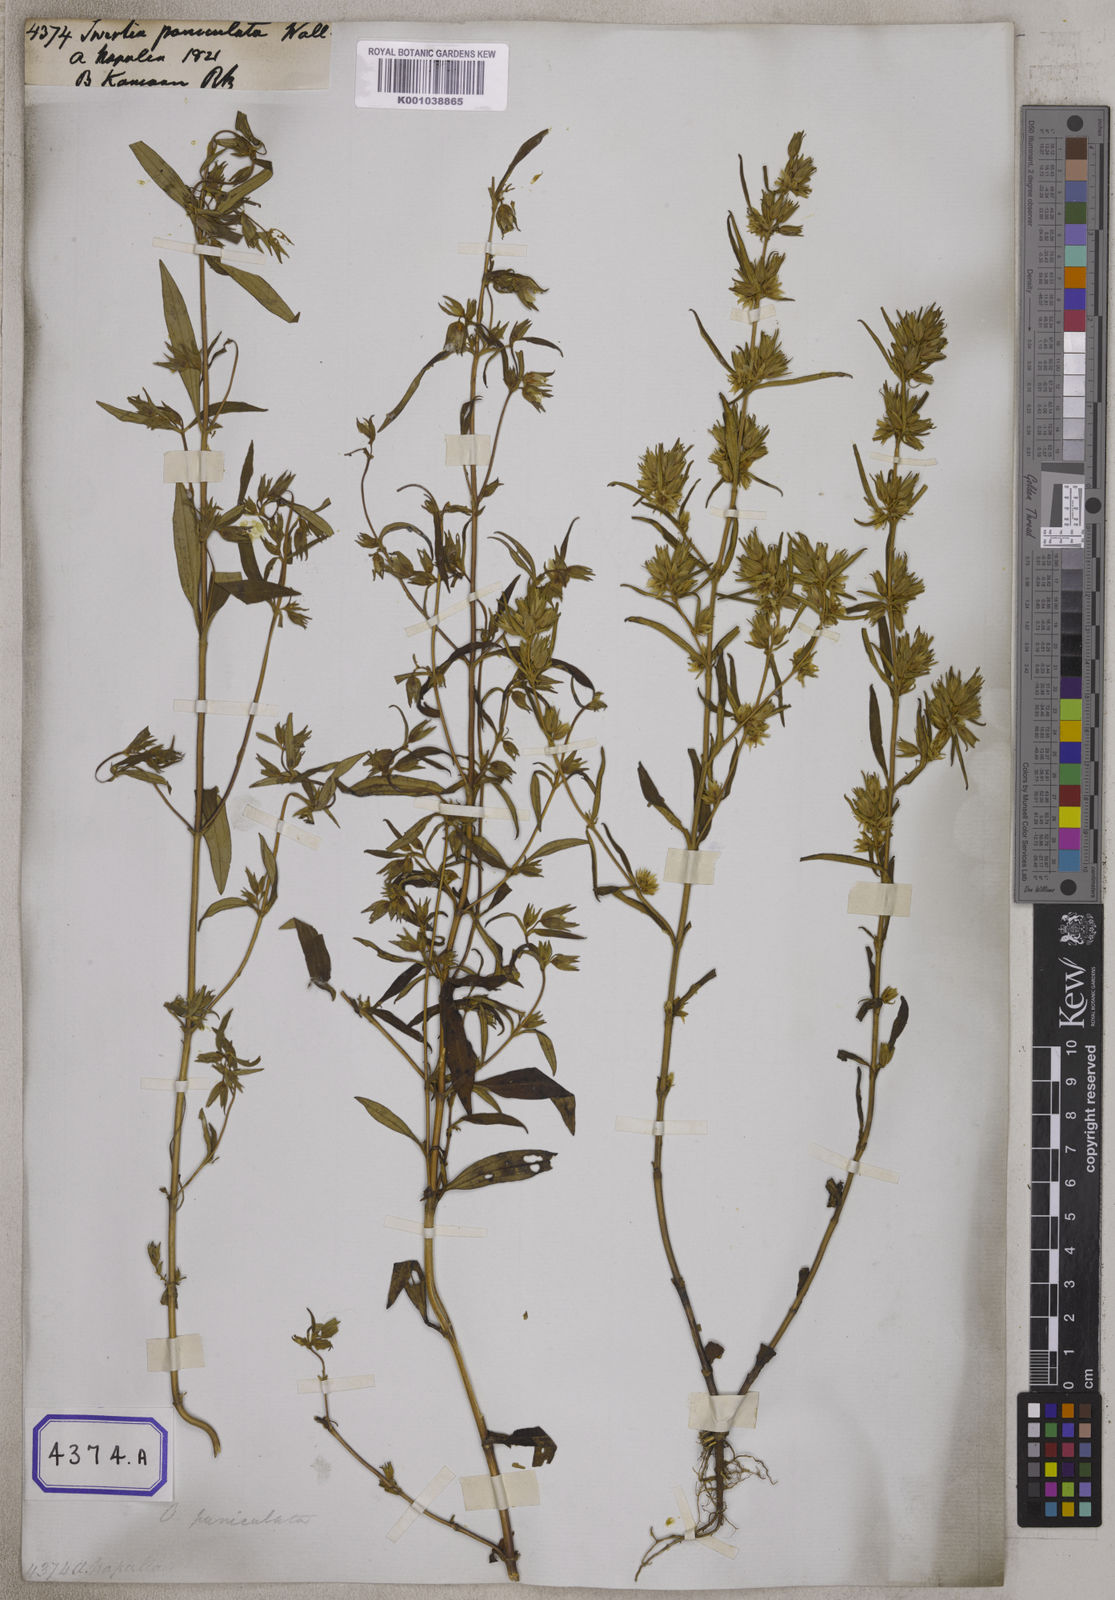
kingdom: Plantae
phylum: Tracheophyta
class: Magnoliopsida
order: Gentianales
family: Gentianaceae
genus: Swertia
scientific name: Swertia paniculata
